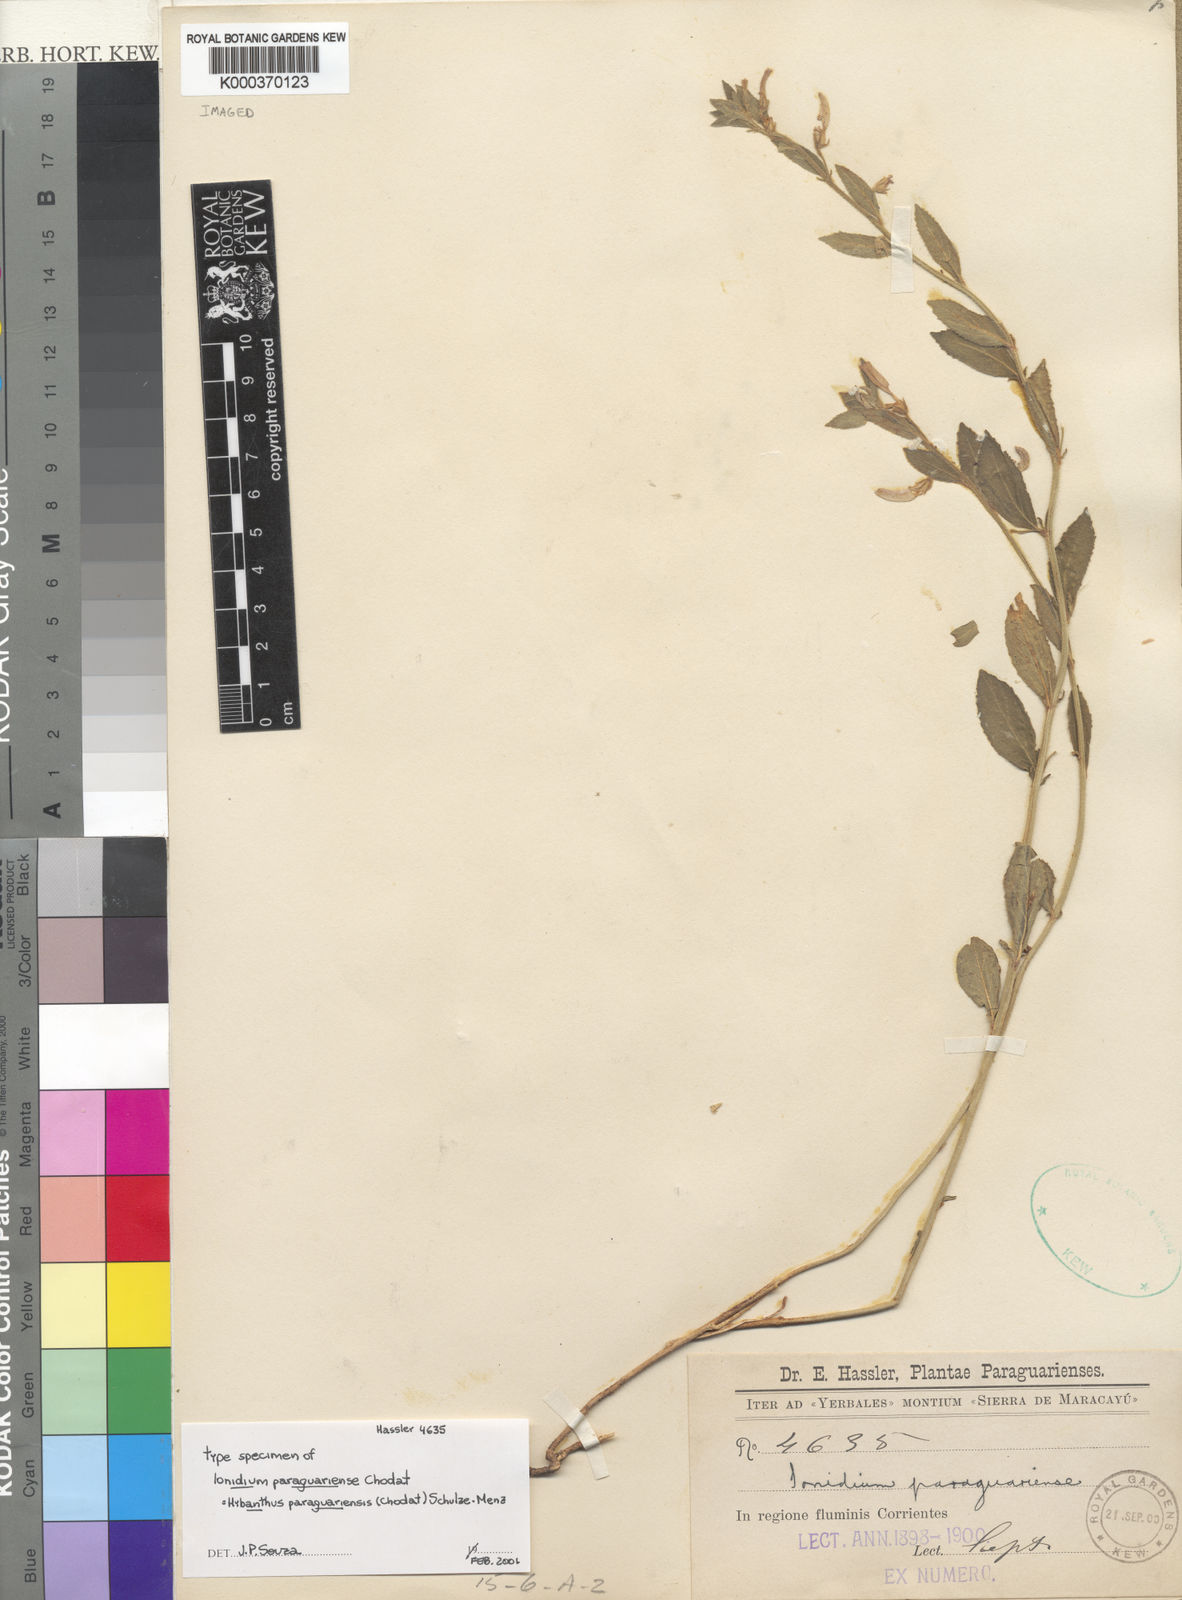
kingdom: Plantae
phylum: Tracheophyta
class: Magnoliopsida
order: Malpighiales
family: Violaceae
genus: Pombalia
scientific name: Pombalia paraguariensis
